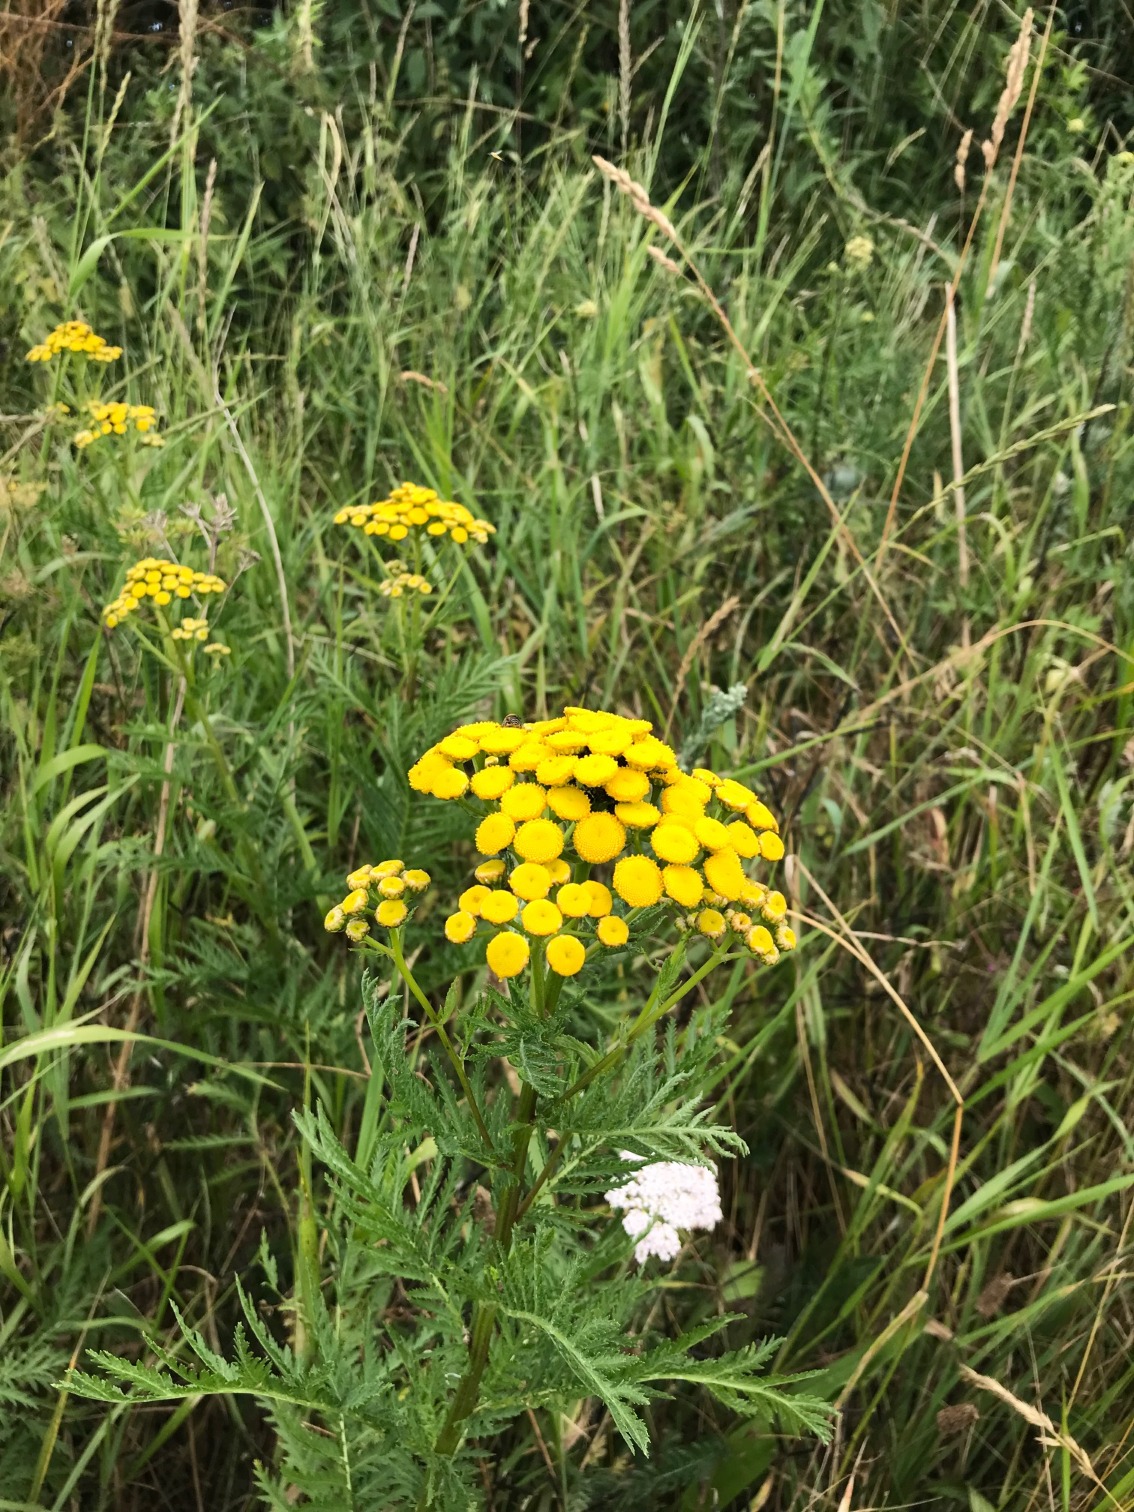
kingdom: Plantae
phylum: Tracheophyta
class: Magnoliopsida
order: Asterales
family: Asteraceae
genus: Tanacetum
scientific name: Tanacetum vulgare
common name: Rejnfan
